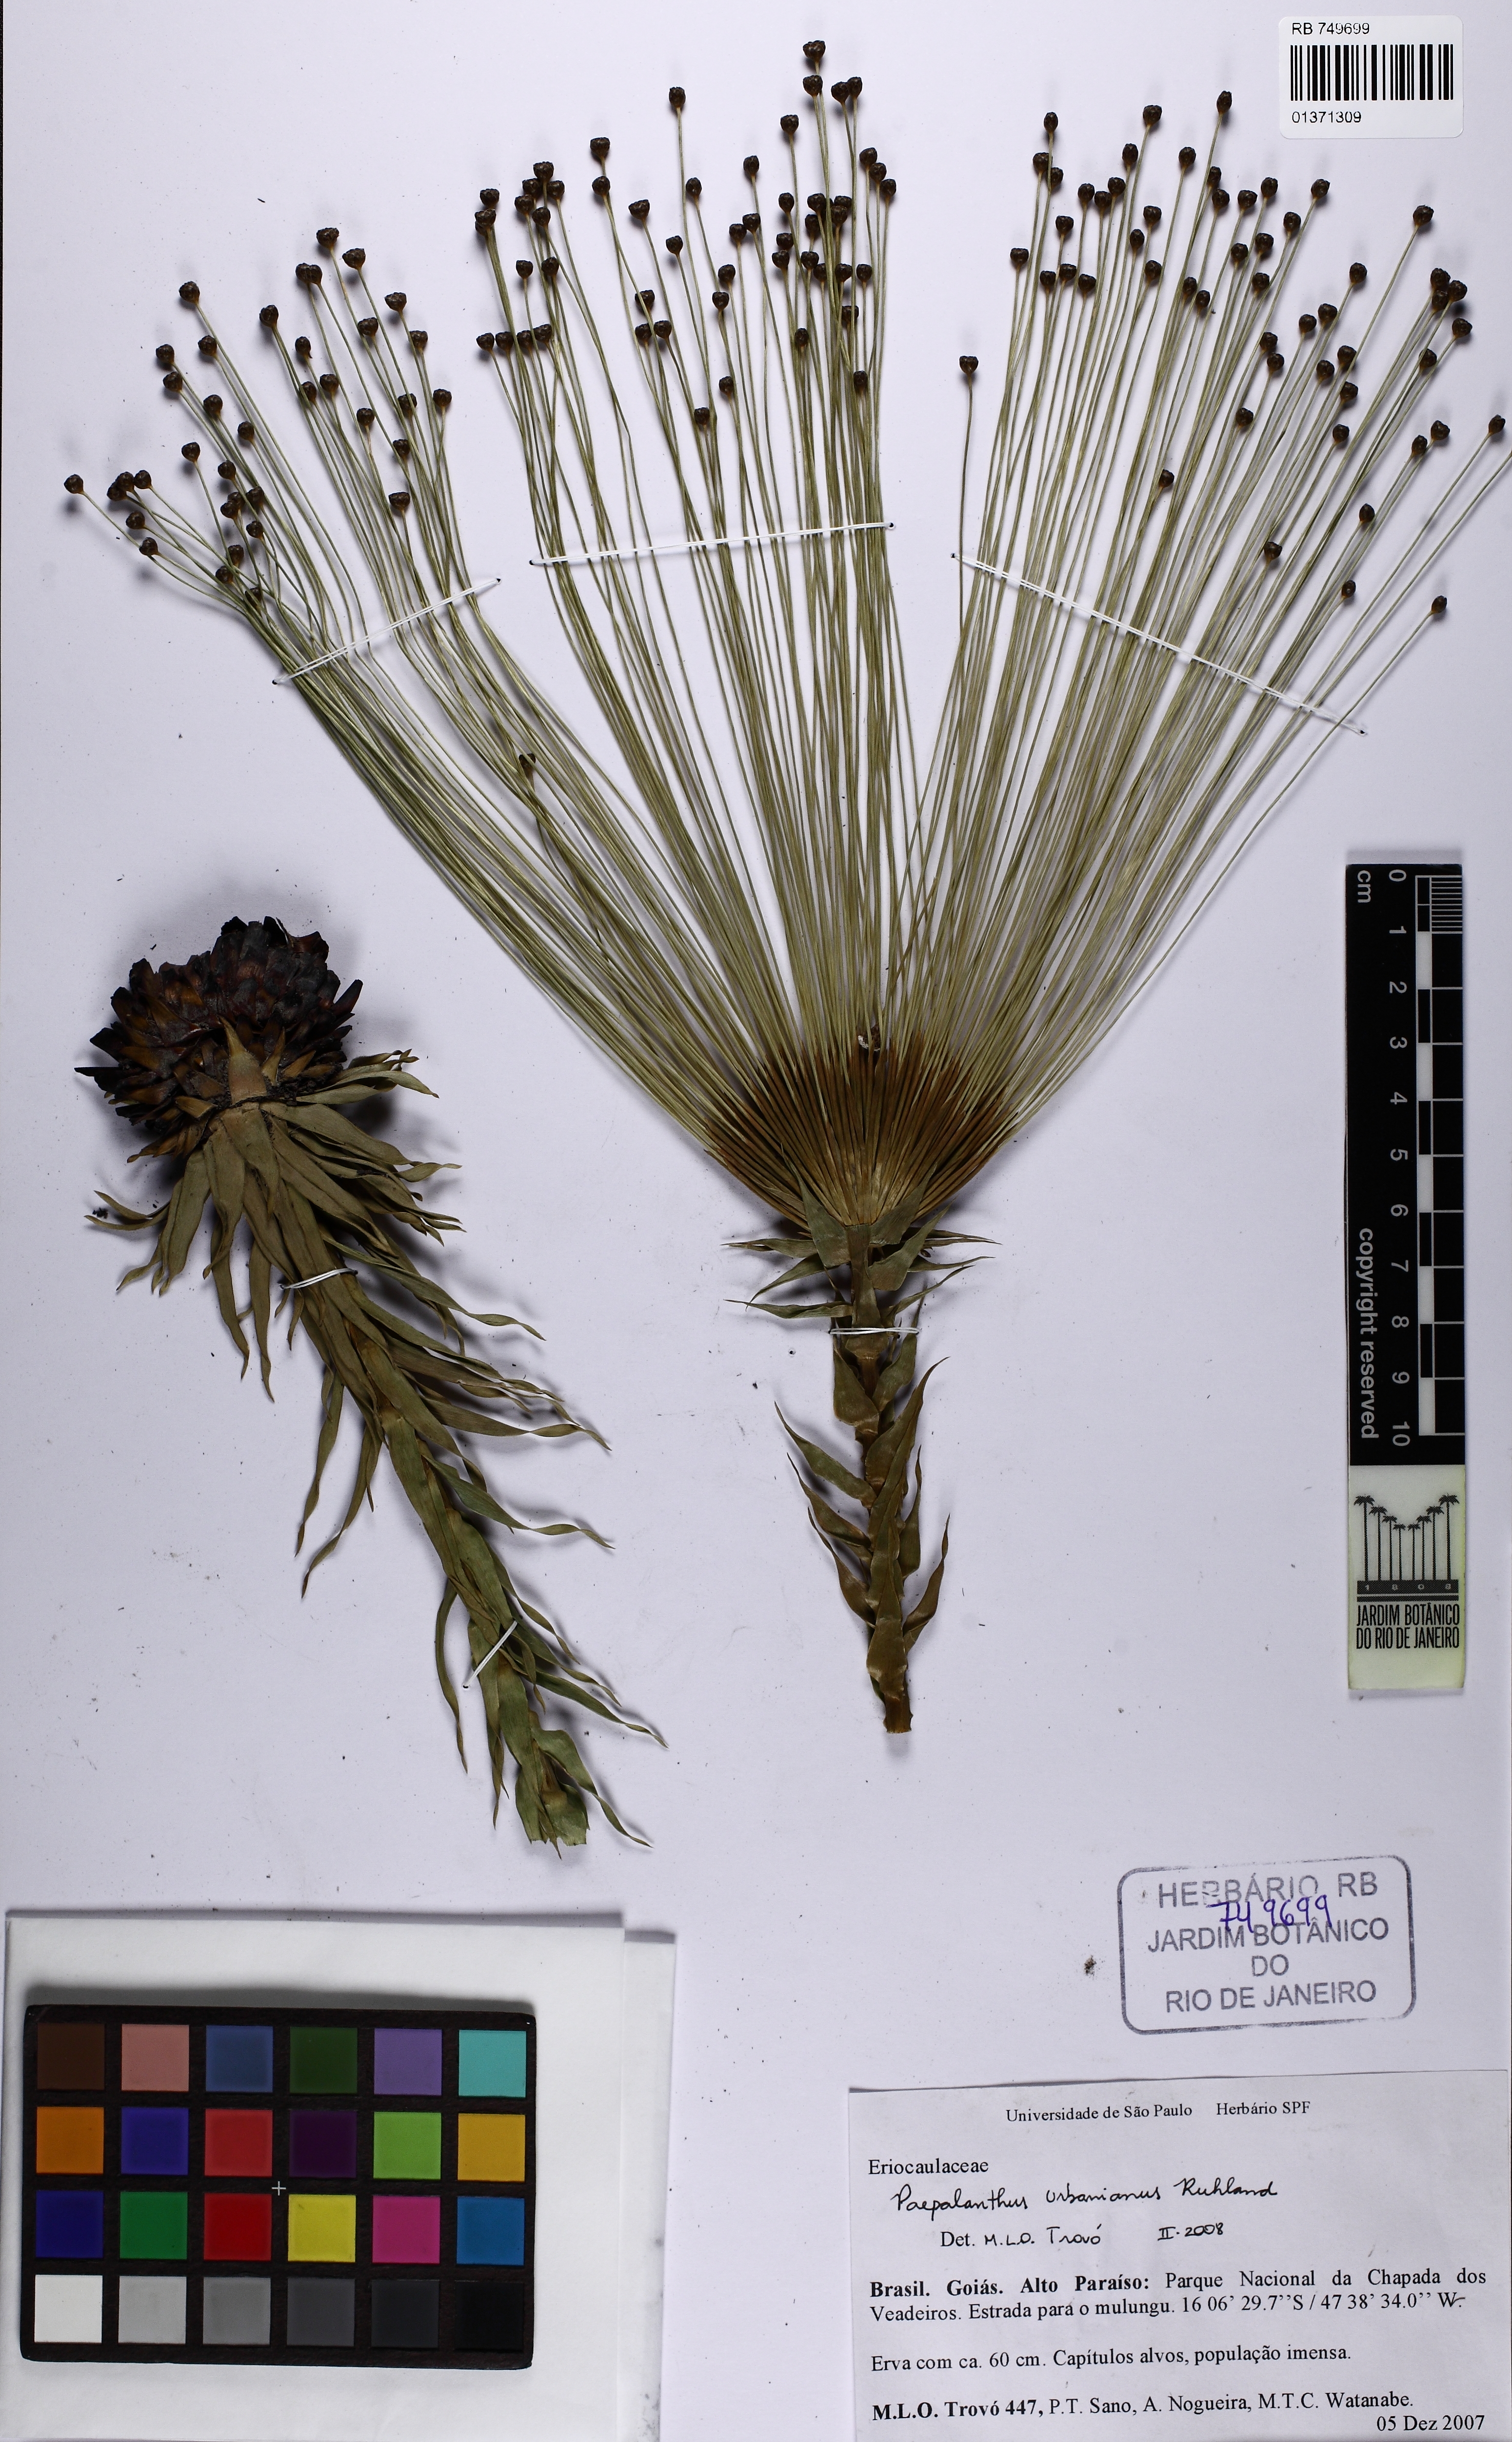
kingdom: Plantae
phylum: Tracheophyta
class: Liliopsida
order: Poales
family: Eriocaulaceae
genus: Paepalanthus
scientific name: Paepalanthus urbanianus
